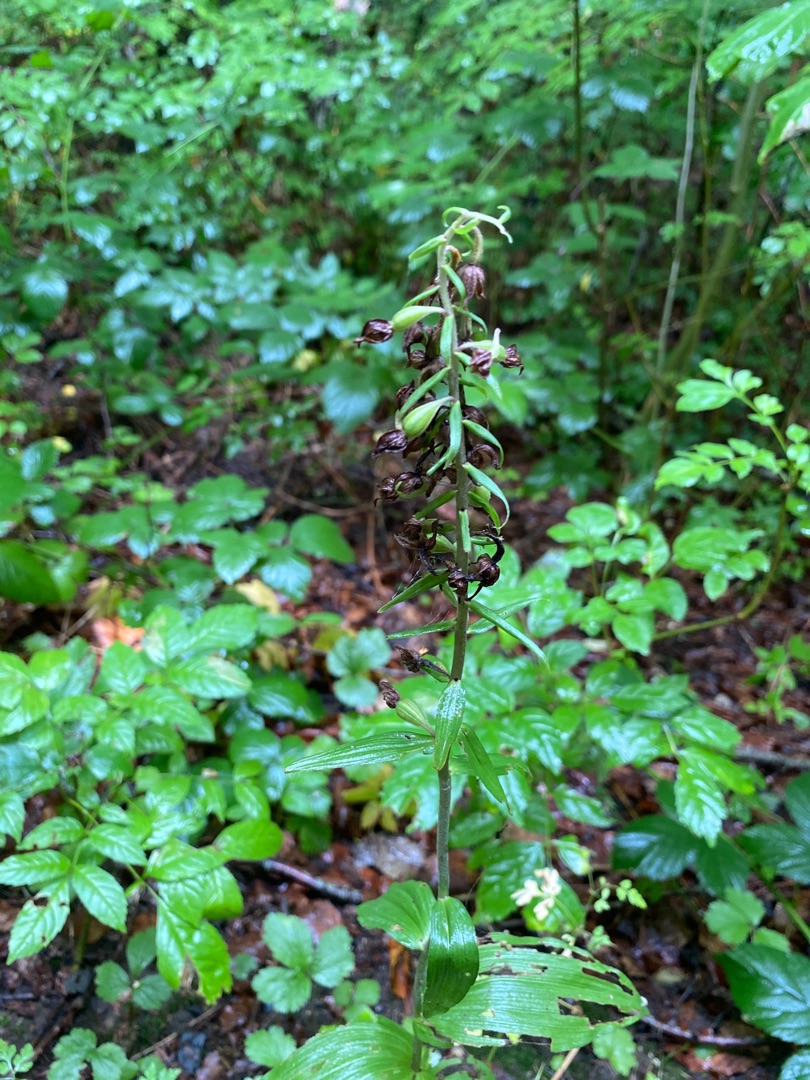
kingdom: Plantae
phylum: Tracheophyta
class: Liliopsida
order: Asparagales
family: Orchidaceae
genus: Epipactis
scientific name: Epipactis helleborine
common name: Skov-hullæbe
